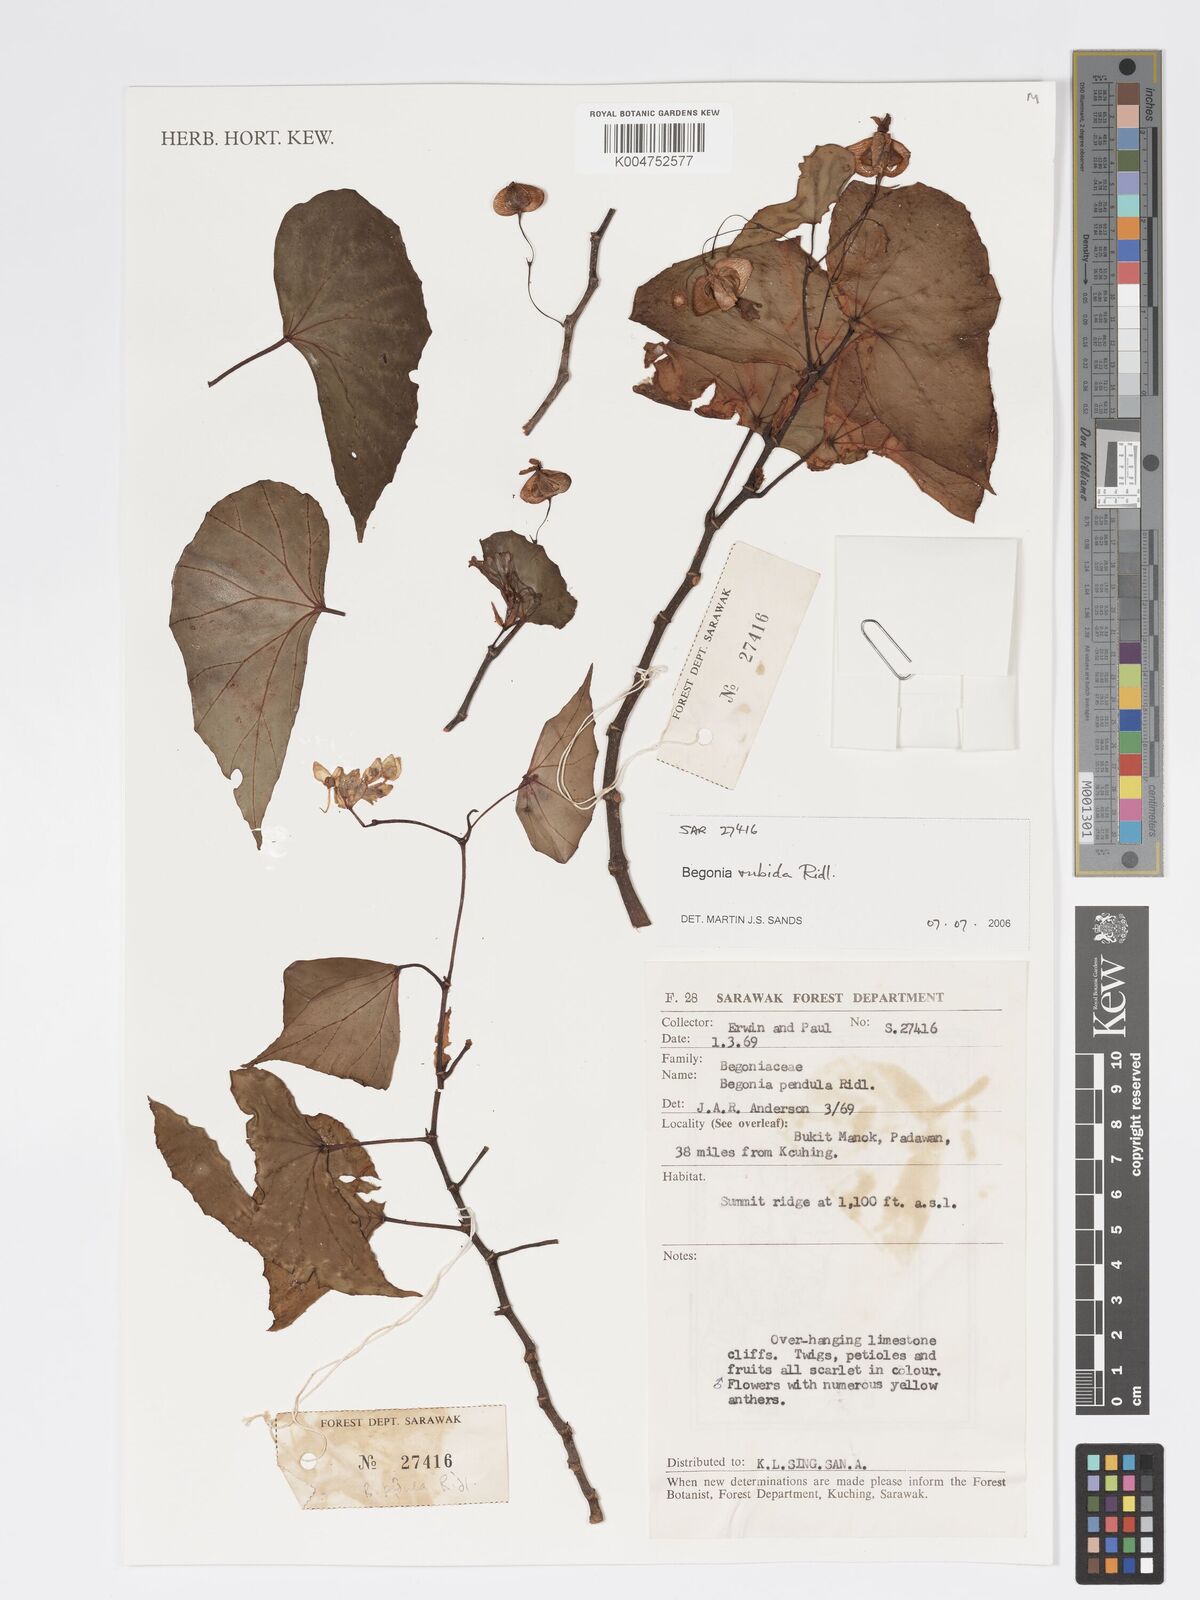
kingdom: Plantae
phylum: Tracheophyta
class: Magnoliopsida
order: Cucurbitales
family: Begoniaceae
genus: Begonia
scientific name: Begonia rubida
